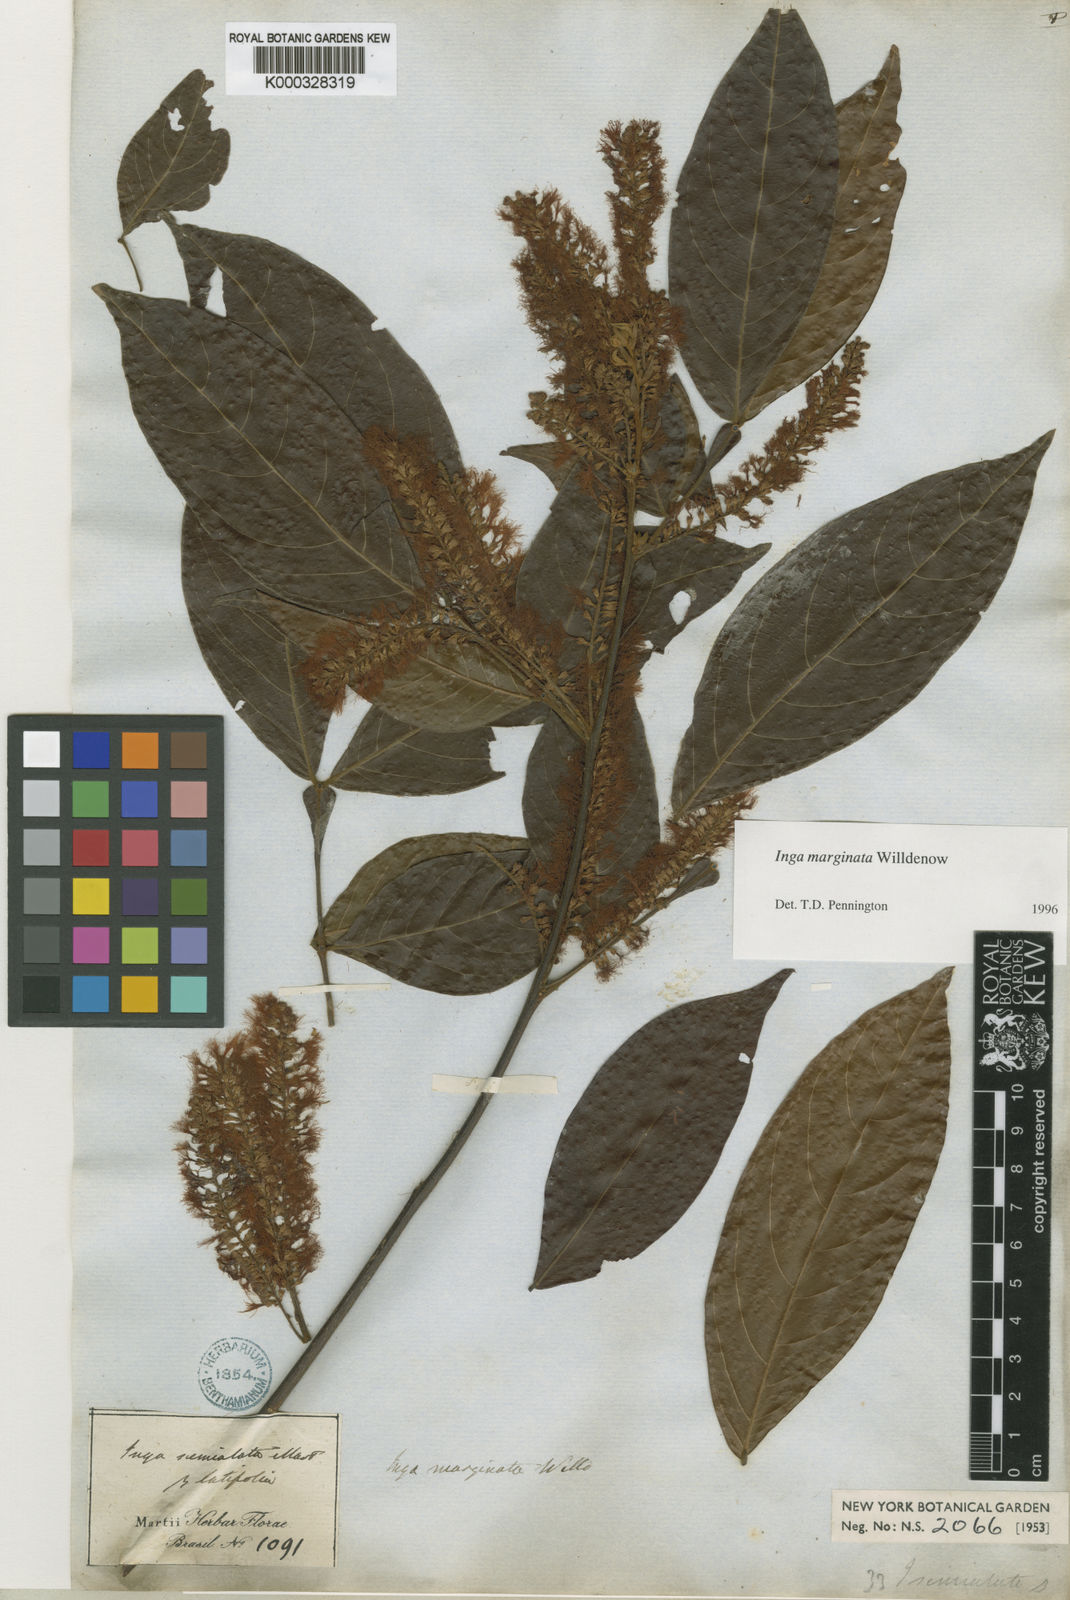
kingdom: Plantae
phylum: Tracheophyta
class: Magnoliopsida
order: Fabales
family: Fabaceae
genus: Inga
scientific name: Inga marginata
